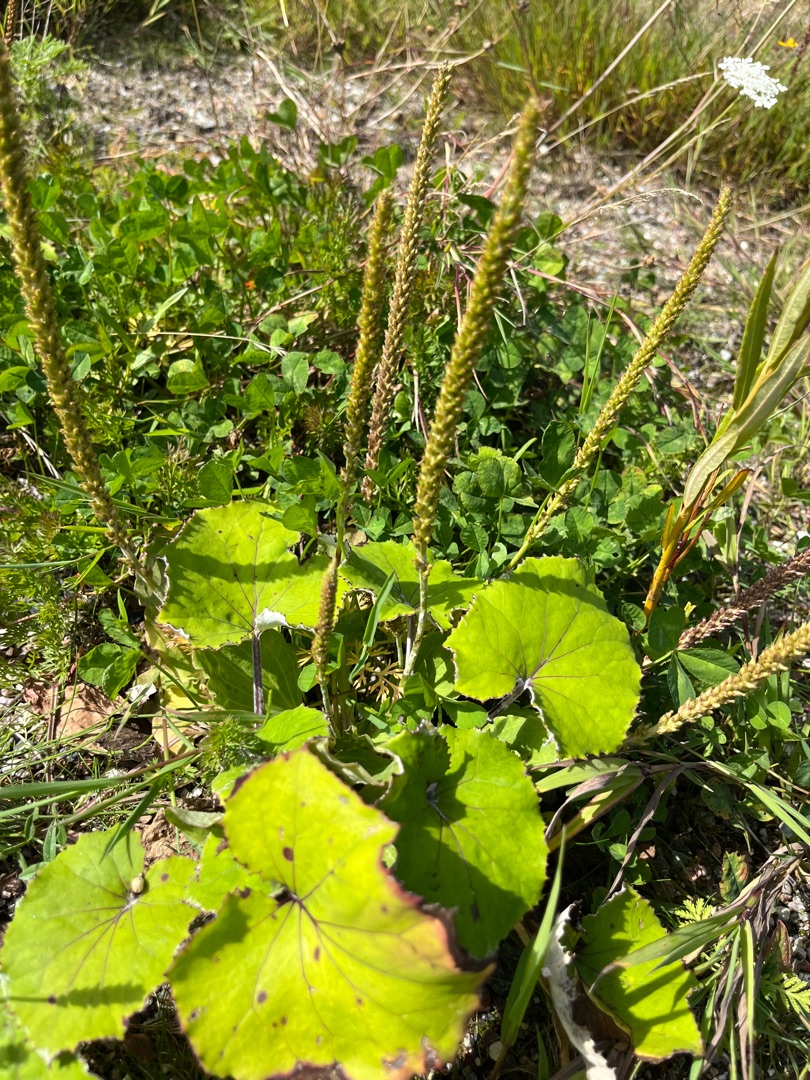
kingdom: Plantae
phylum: Tracheophyta
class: Magnoliopsida
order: Lamiales
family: Plantaginaceae
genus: Plantago
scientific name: Plantago major
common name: Glat vejbred
